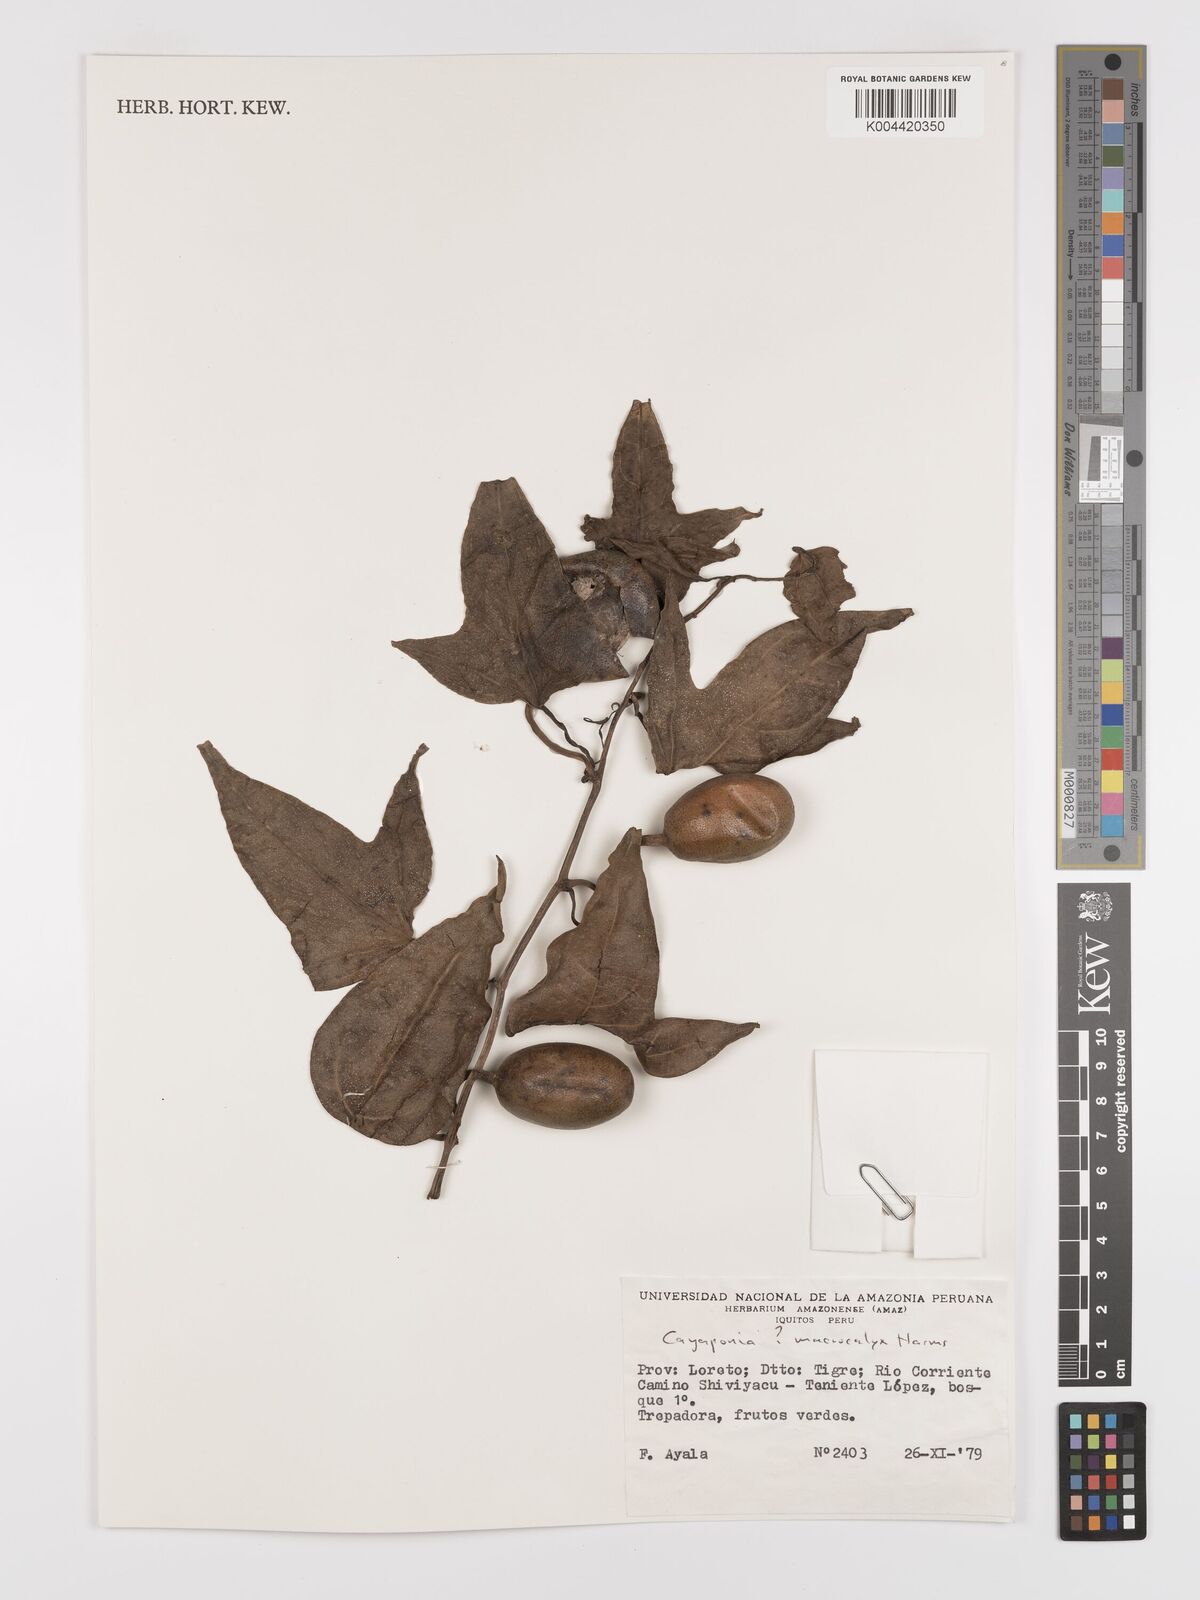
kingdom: Plantae
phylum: Tracheophyta
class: Magnoliopsida
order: Cucurbitales
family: Cucurbitaceae
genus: Cayaponia
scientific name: Cayaponia macrocalyx
